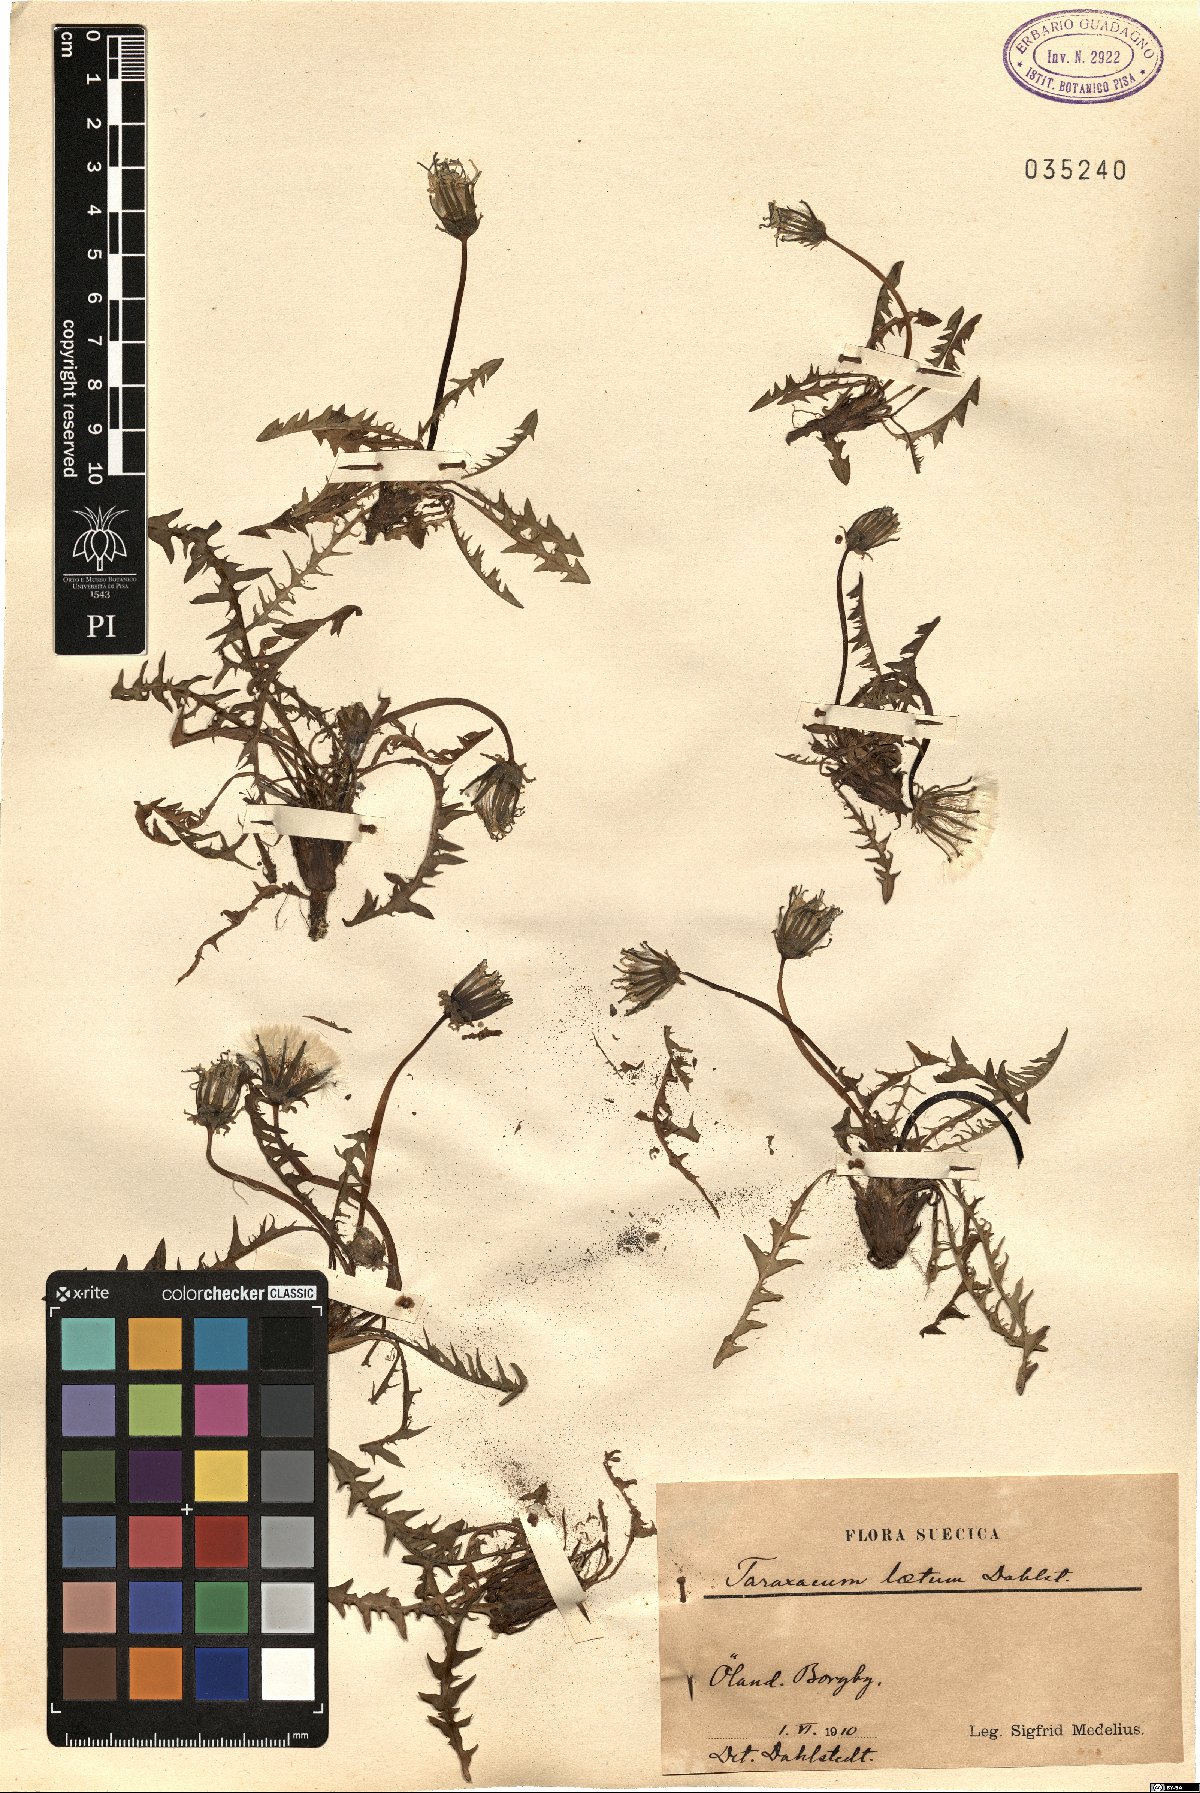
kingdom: Plantae
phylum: Tracheophyta
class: Magnoliopsida
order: Asterales
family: Asteraceae
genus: Taraxacum
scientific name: Taraxacum latulum
